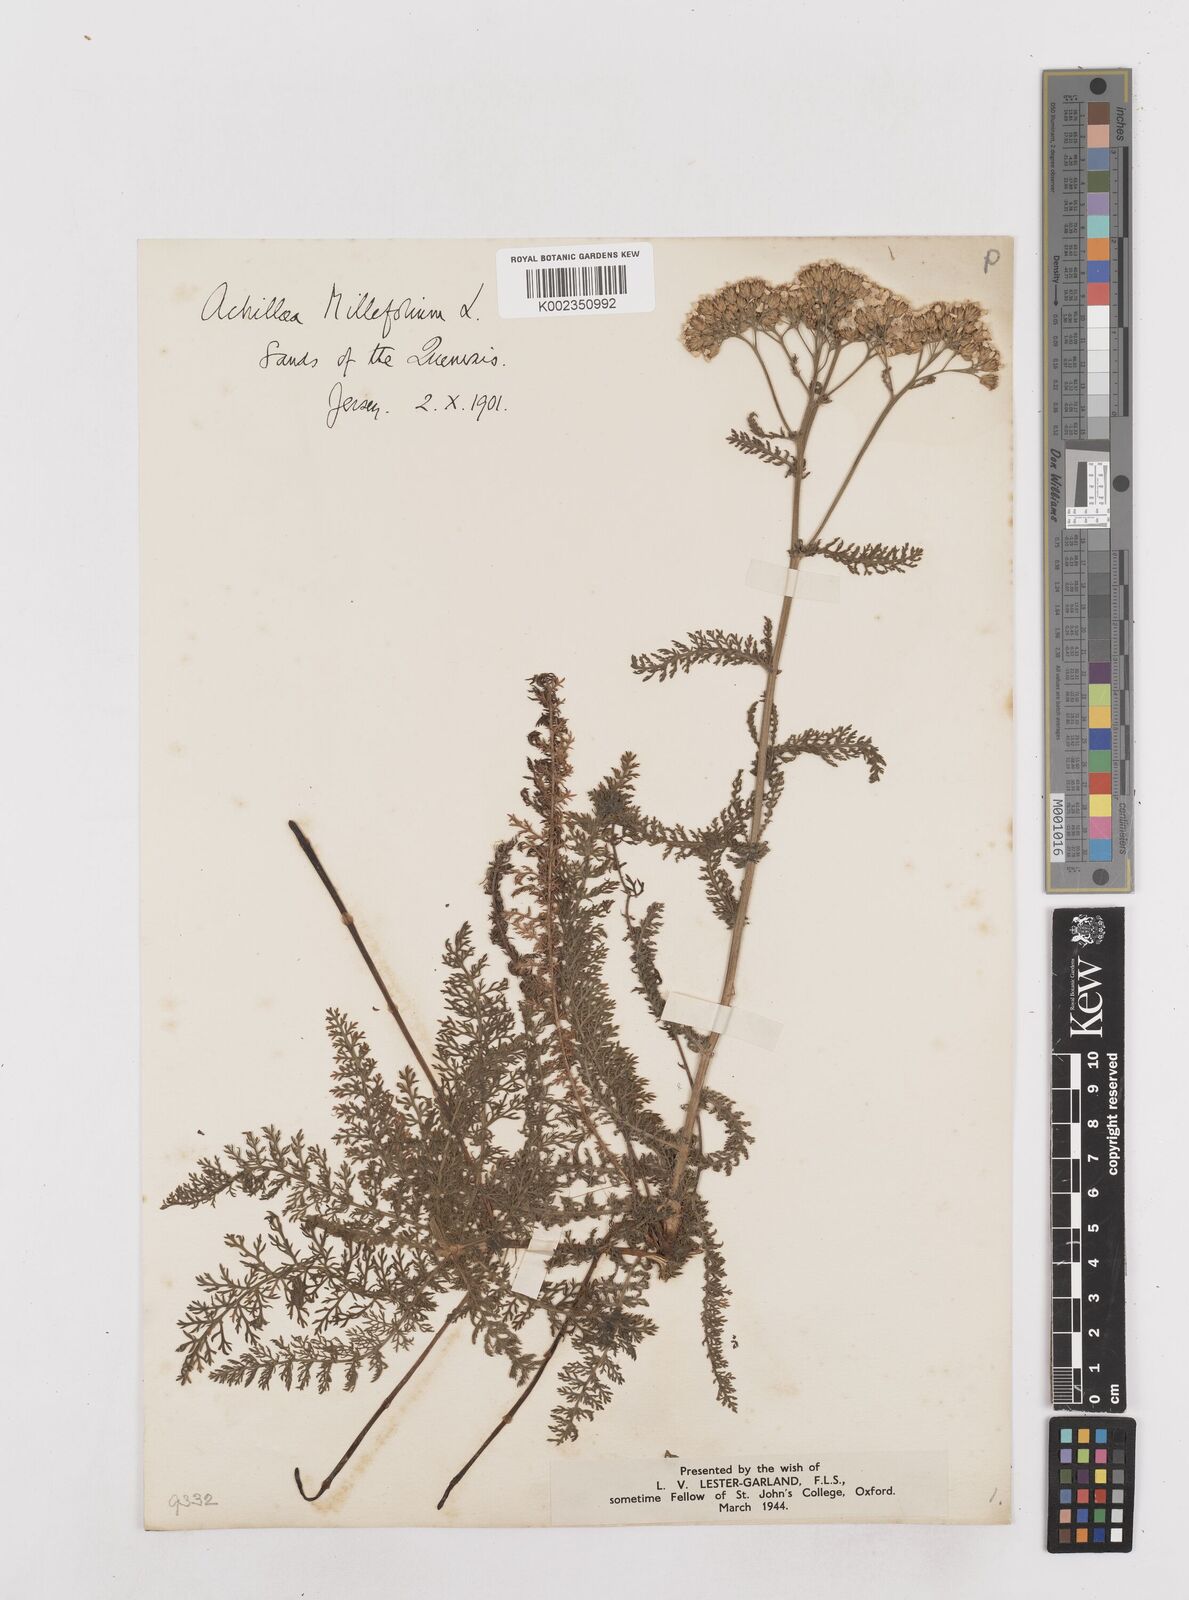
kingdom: Plantae
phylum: Tracheophyta
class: Magnoliopsida
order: Asterales
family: Asteraceae
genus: Achillea
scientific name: Achillea millefolium
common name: Yarrow
